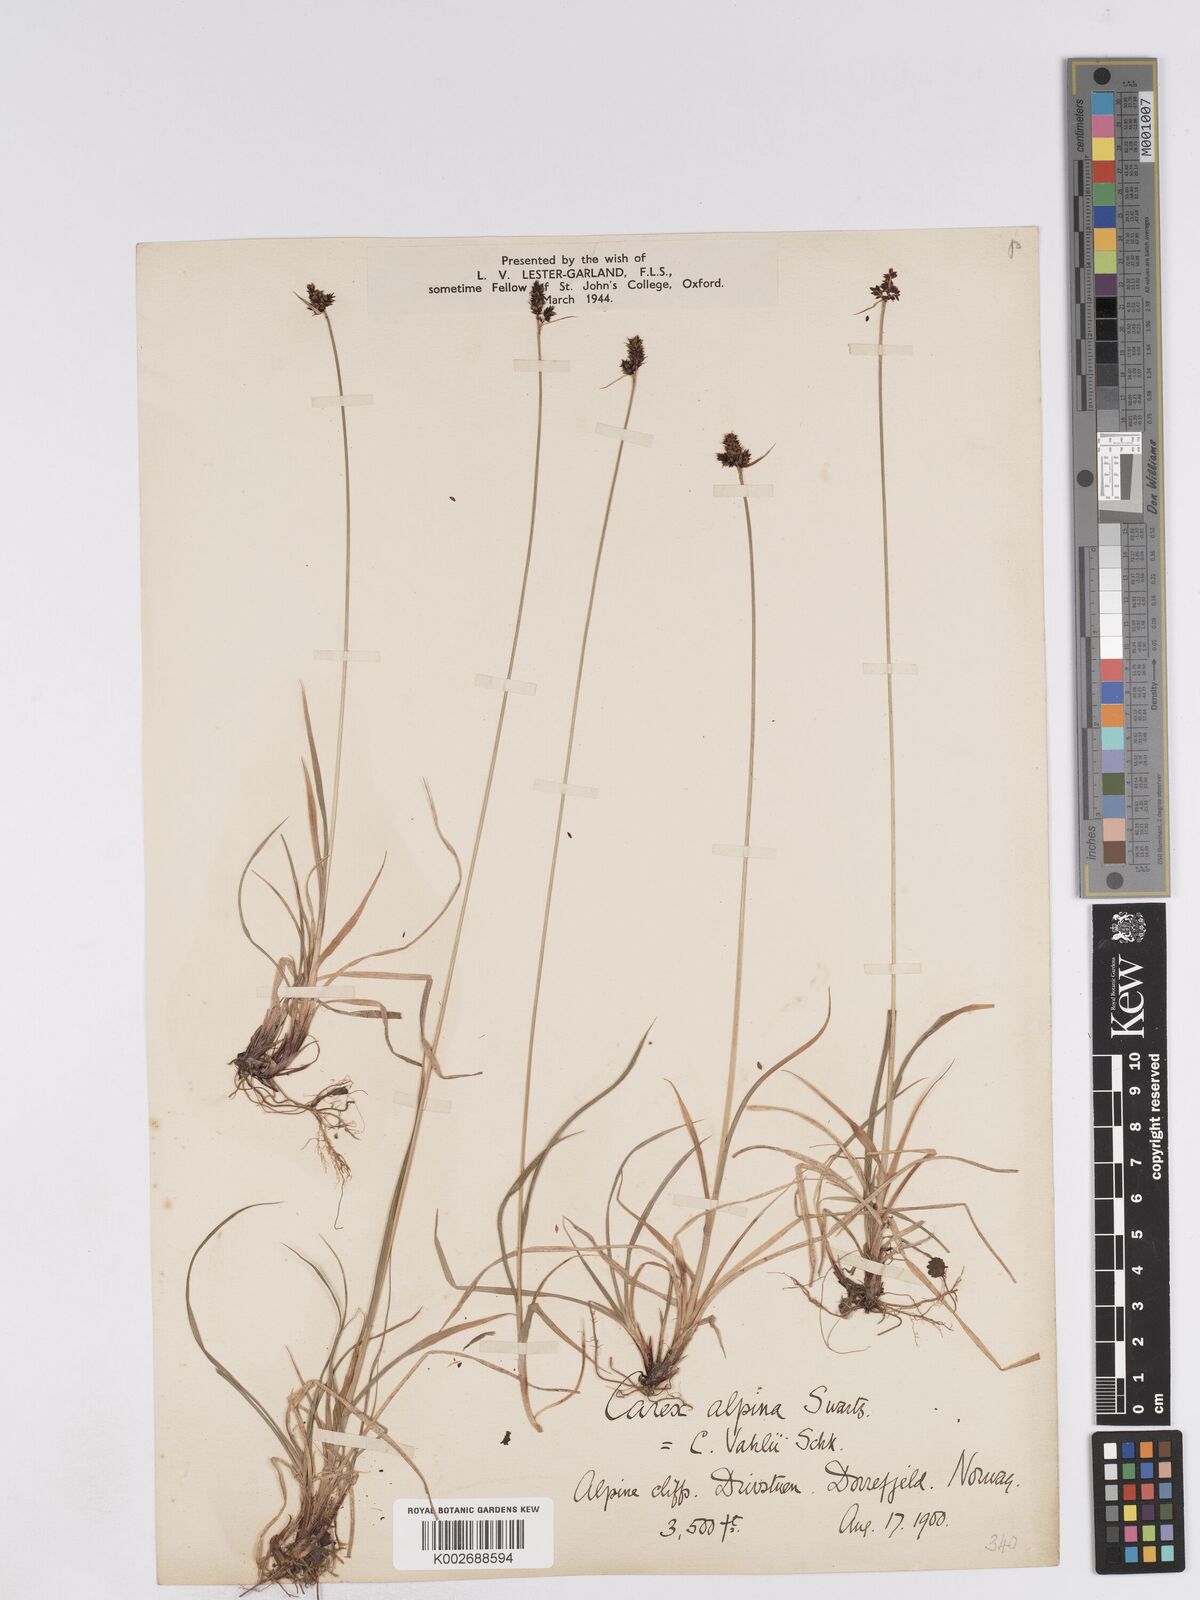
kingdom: Plantae
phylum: Tracheophyta
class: Liliopsida
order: Poales
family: Cyperaceae
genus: Carex
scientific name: Carex norvegica
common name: Close-headed alpine-sedge
